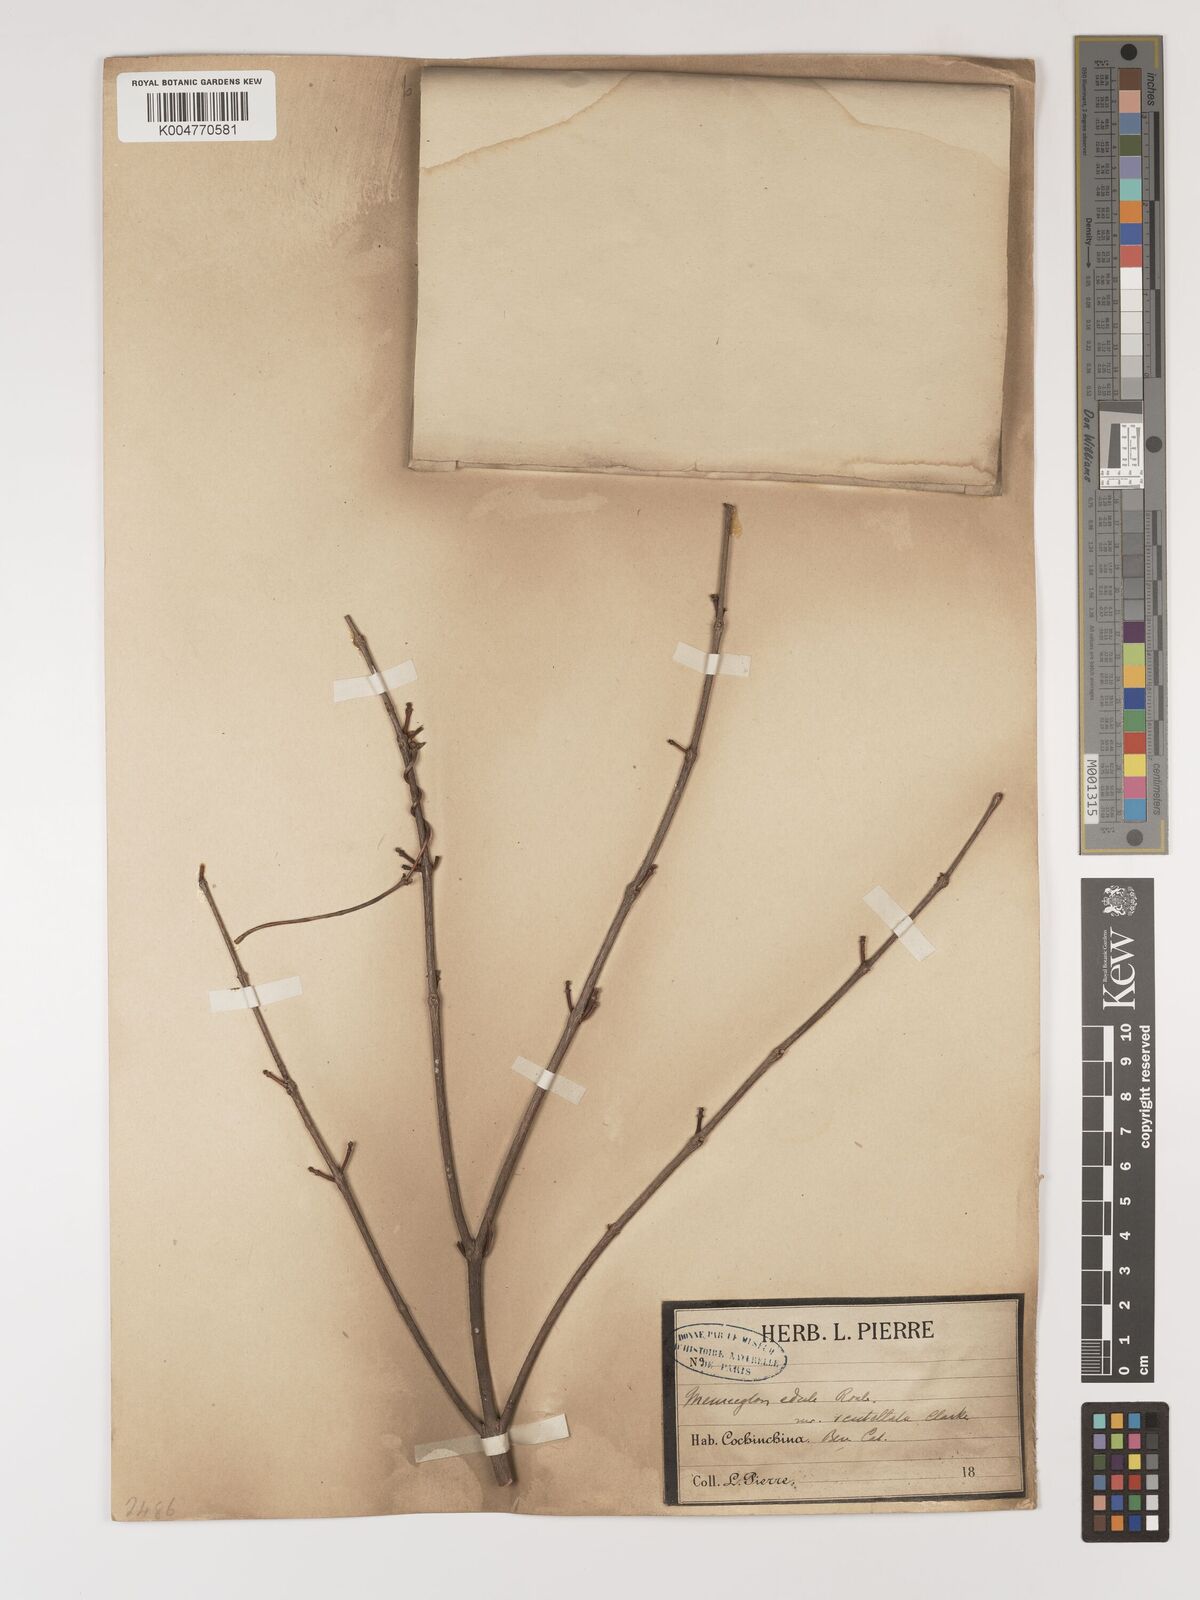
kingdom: Plantae
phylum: Tracheophyta
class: Magnoliopsida
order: Myrtales
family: Melastomataceae
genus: Memecylon
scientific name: Memecylon scutellatum
